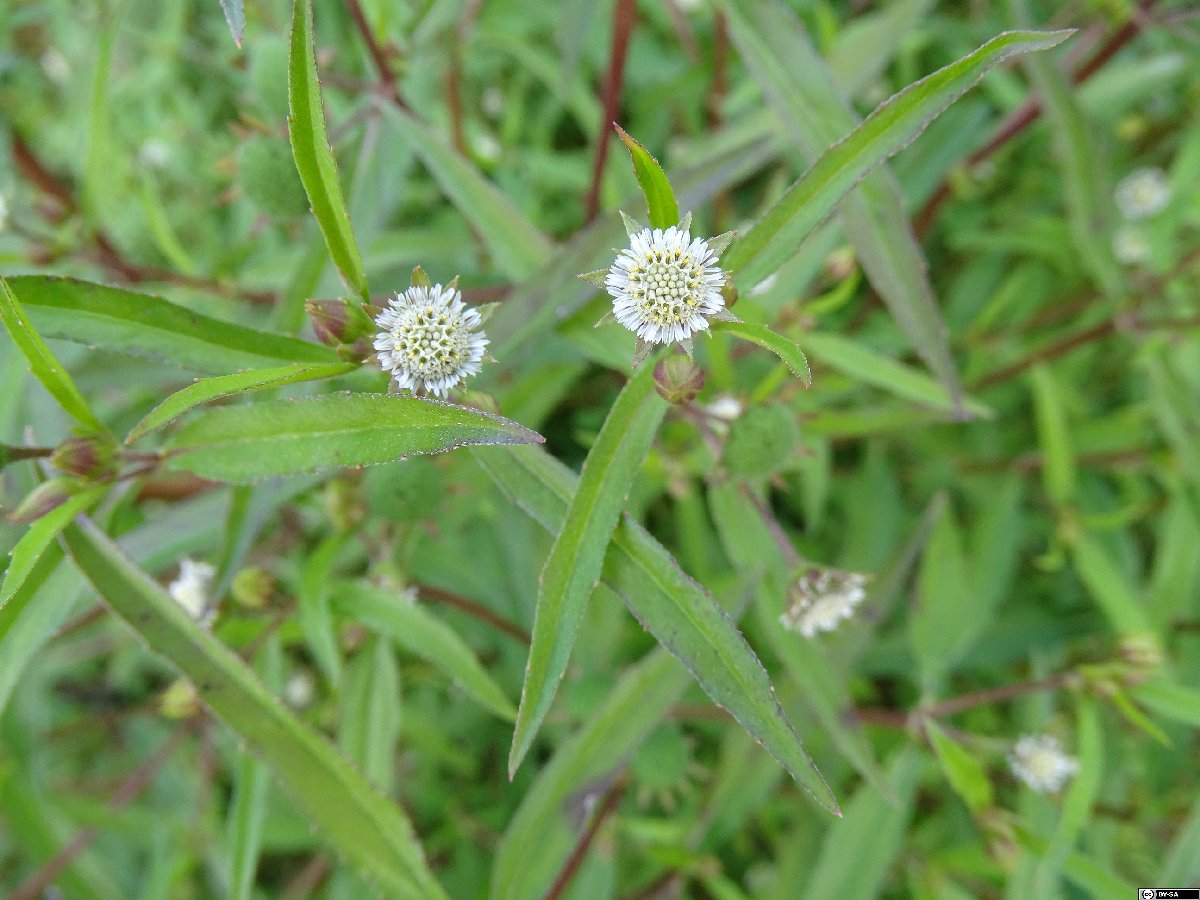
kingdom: Plantae
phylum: Tracheophyta
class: Magnoliopsida
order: Asterales
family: Asteraceae
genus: Eclipta
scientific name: Eclipta prostrata
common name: False daisy
